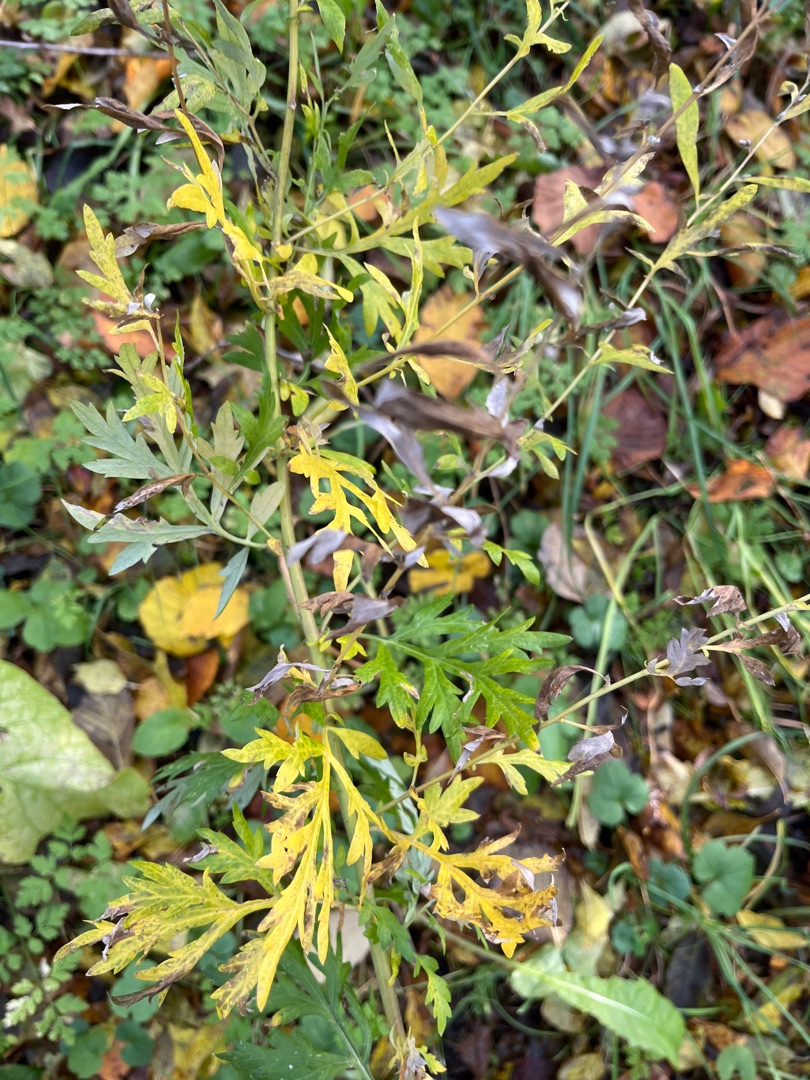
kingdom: Plantae
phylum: Tracheophyta
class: Magnoliopsida
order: Asterales
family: Asteraceae
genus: Artemisia
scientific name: Artemisia vulgaris
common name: Grå-bynke
